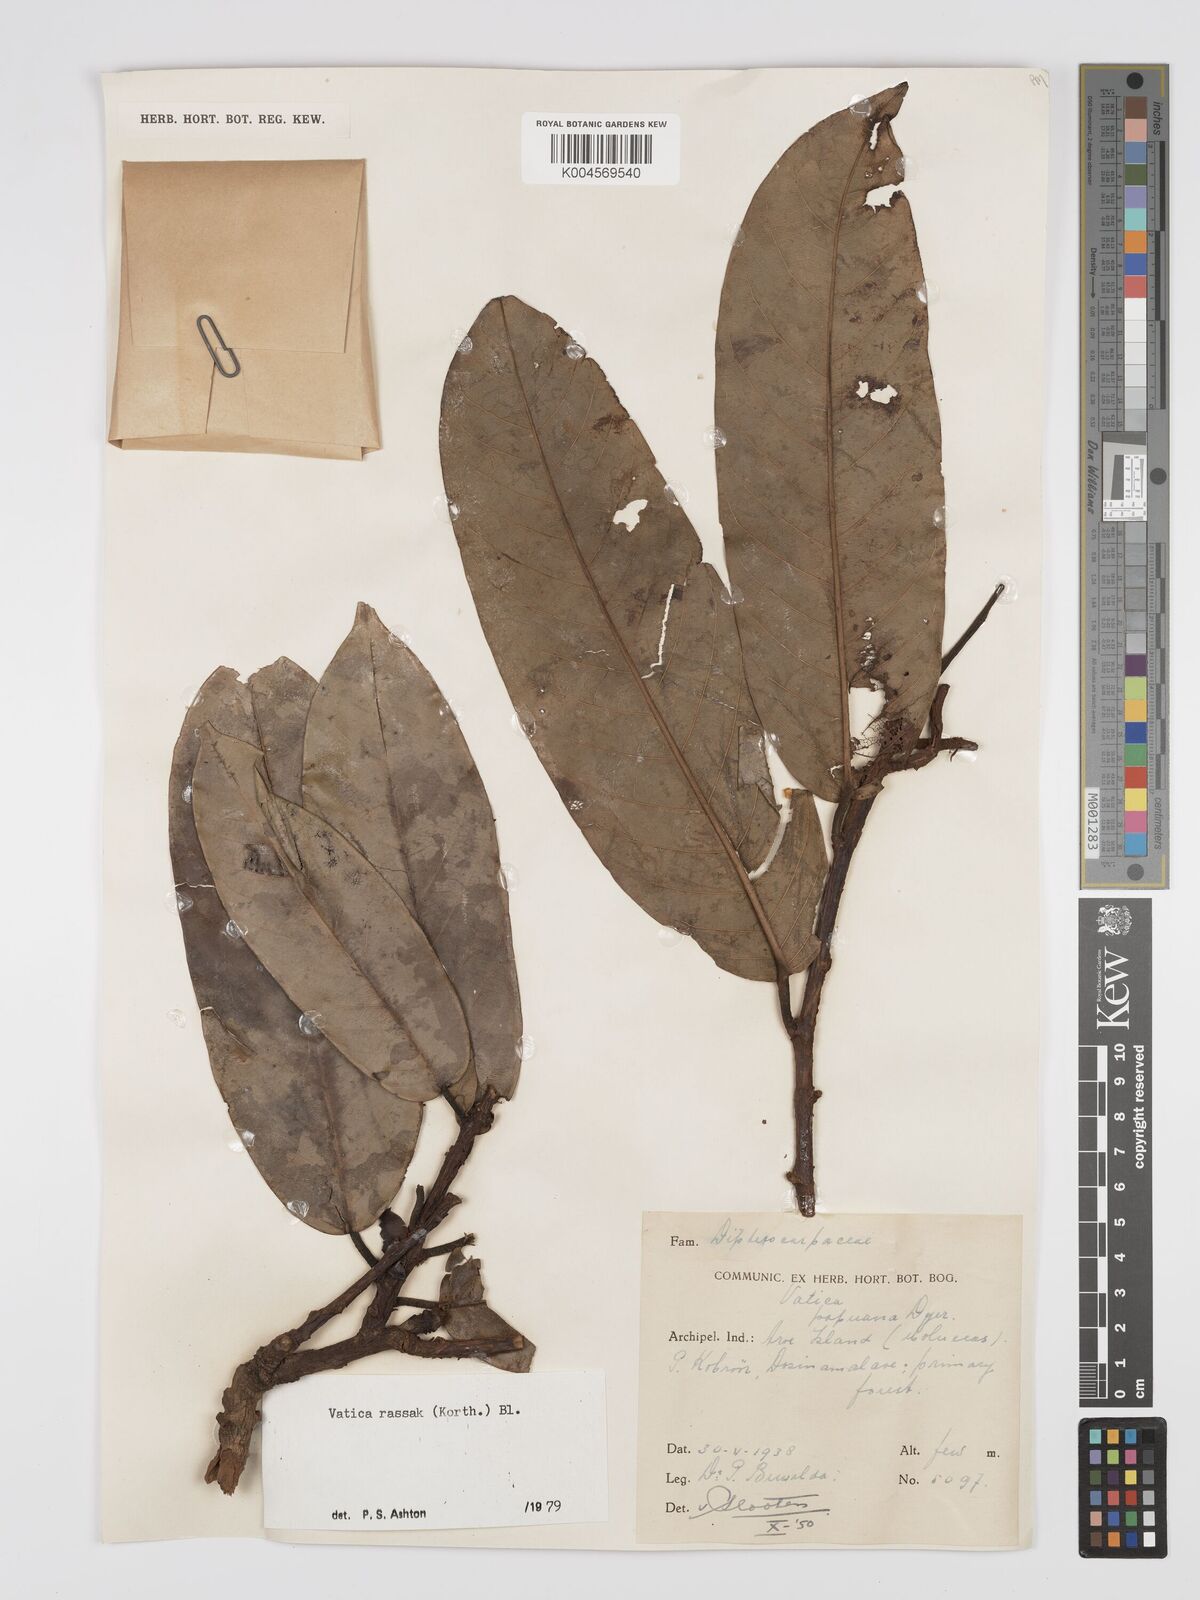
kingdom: Plantae
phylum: Tracheophyta
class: Magnoliopsida
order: Malvales
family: Dipterocarpaceae
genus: Vatica
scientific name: Vatica rassak
